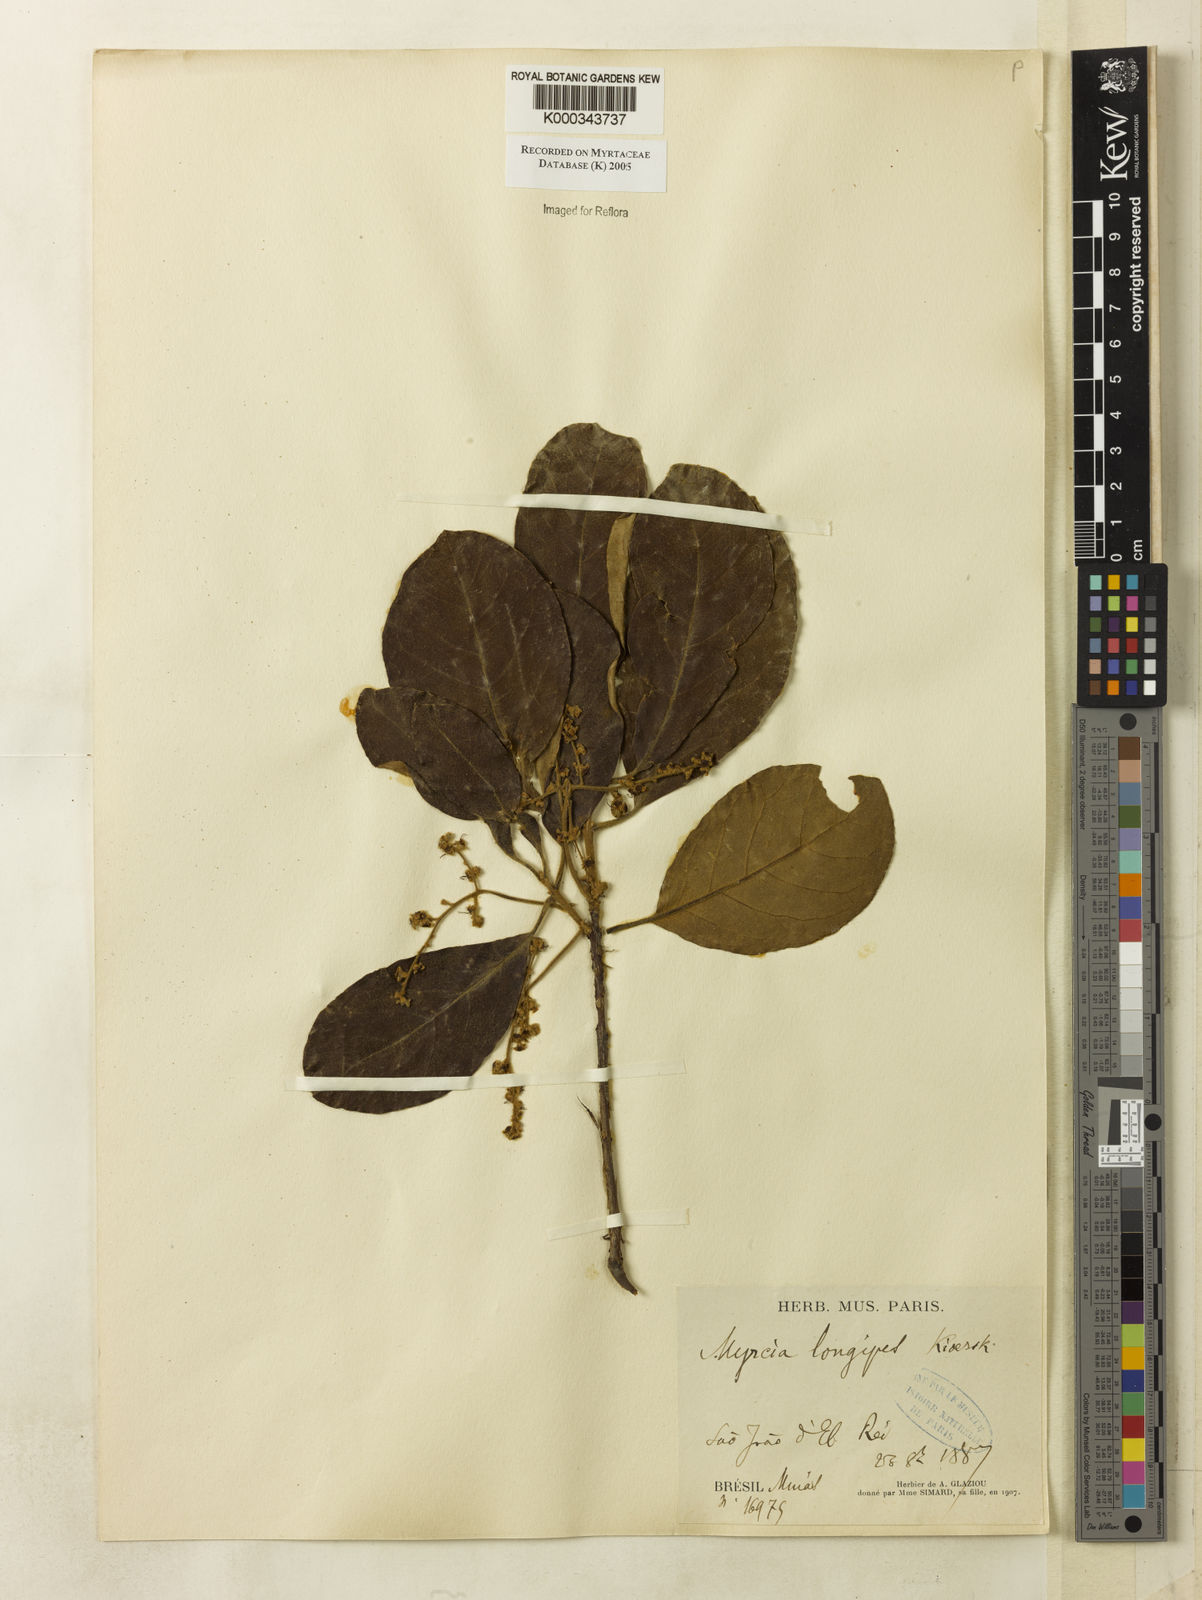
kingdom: Plantae
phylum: Tracheophyta
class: Magnoliopsida
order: Myrtales
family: Myrtaceae
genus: Myrcia
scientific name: Myrcia tomentosa
